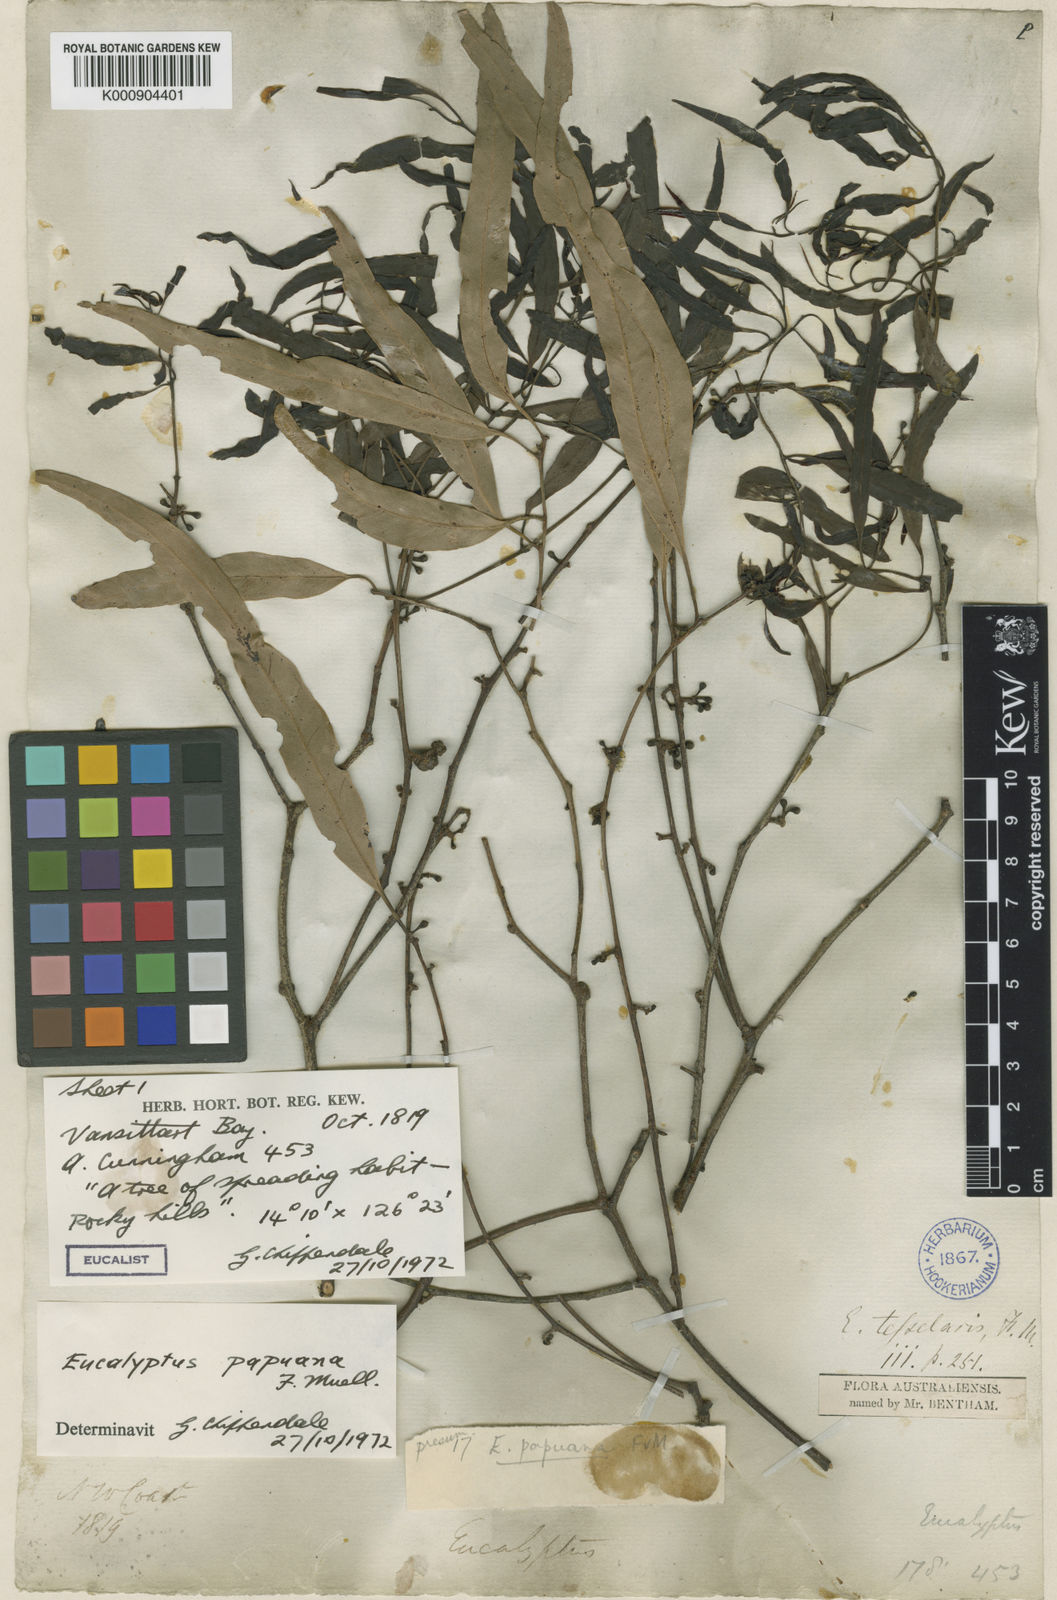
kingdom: Plantae
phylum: Tracheophyta
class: Magnoliopsida
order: Myrtales
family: Myrtaceae
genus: Corymbia
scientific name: Corymbia torta
